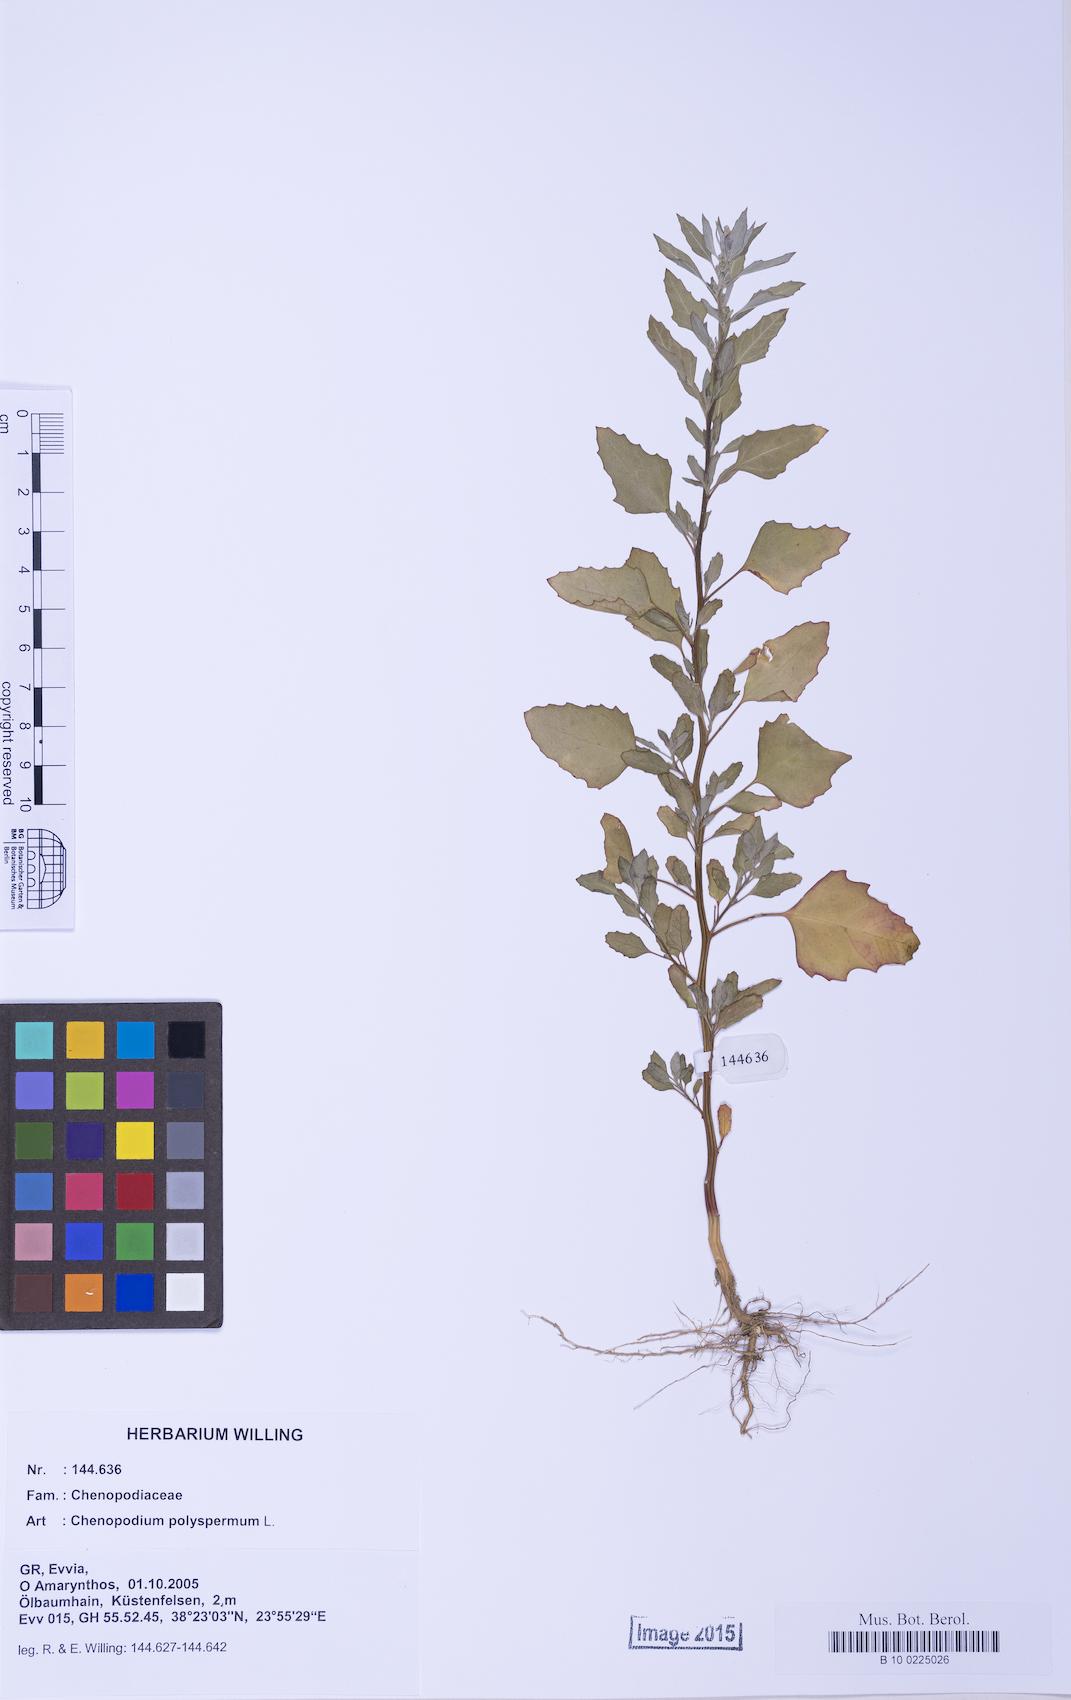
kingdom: Plantae
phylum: Tracheophyta
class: Magnoliopsida
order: Caryophyllales
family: Amaranthaceae
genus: Chenopodium
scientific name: Chenopodium betaceum
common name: Striped goosefoot
